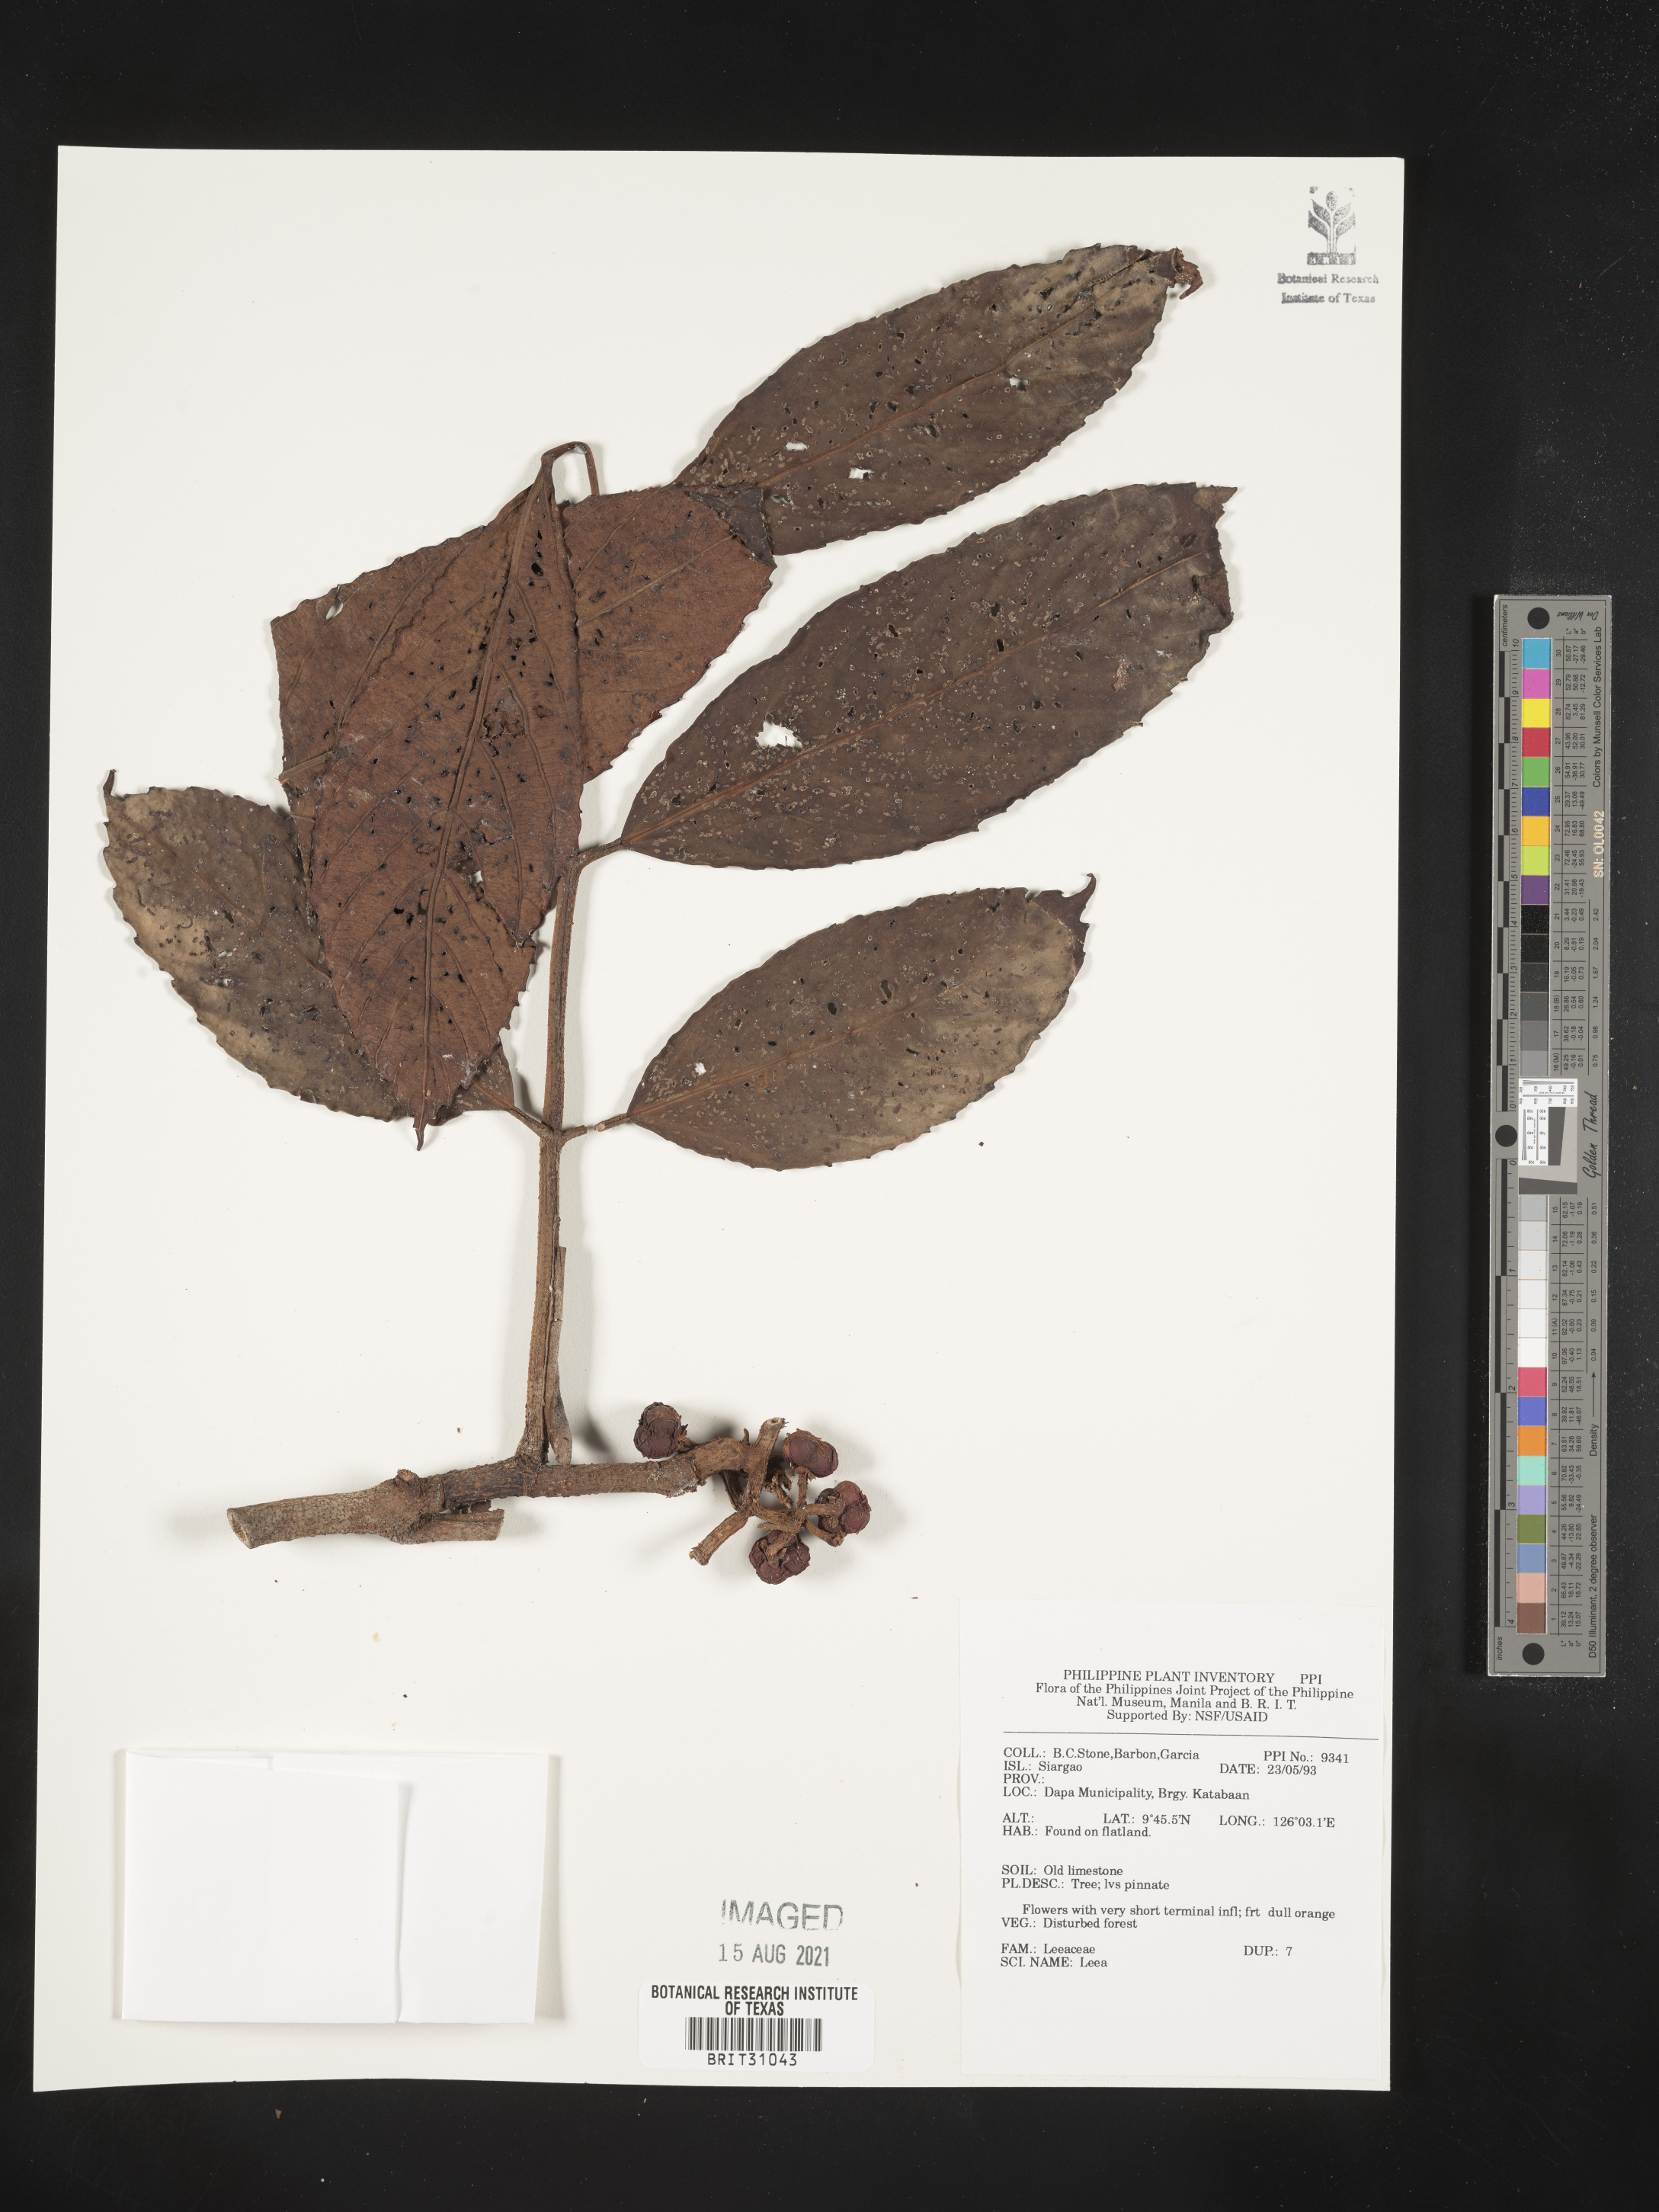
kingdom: Plantae
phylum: Tracheophyta
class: Magnoliopsida
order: Vitales
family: Vitaceae
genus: Leea
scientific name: Leea
